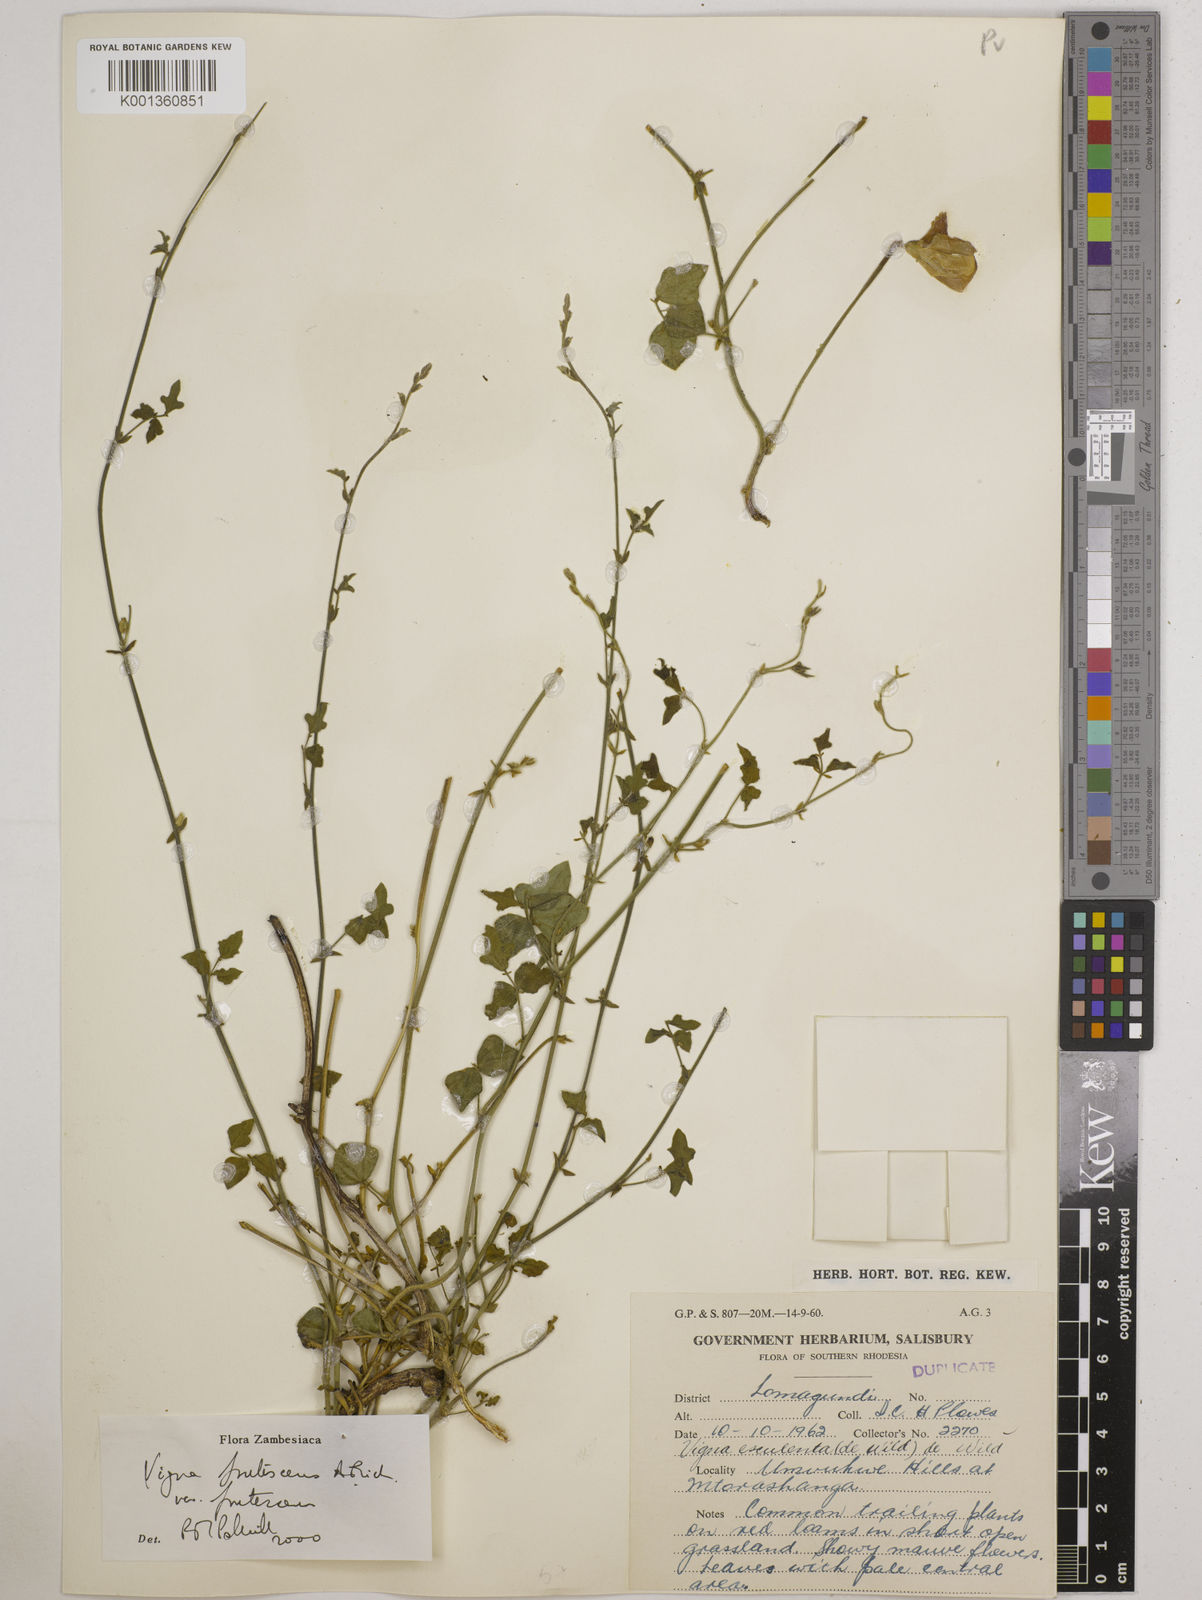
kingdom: Plantae
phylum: Tracheophyta
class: Magnoliopsida
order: Fabales
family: Fabaceae
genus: Vigna
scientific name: Vigna
